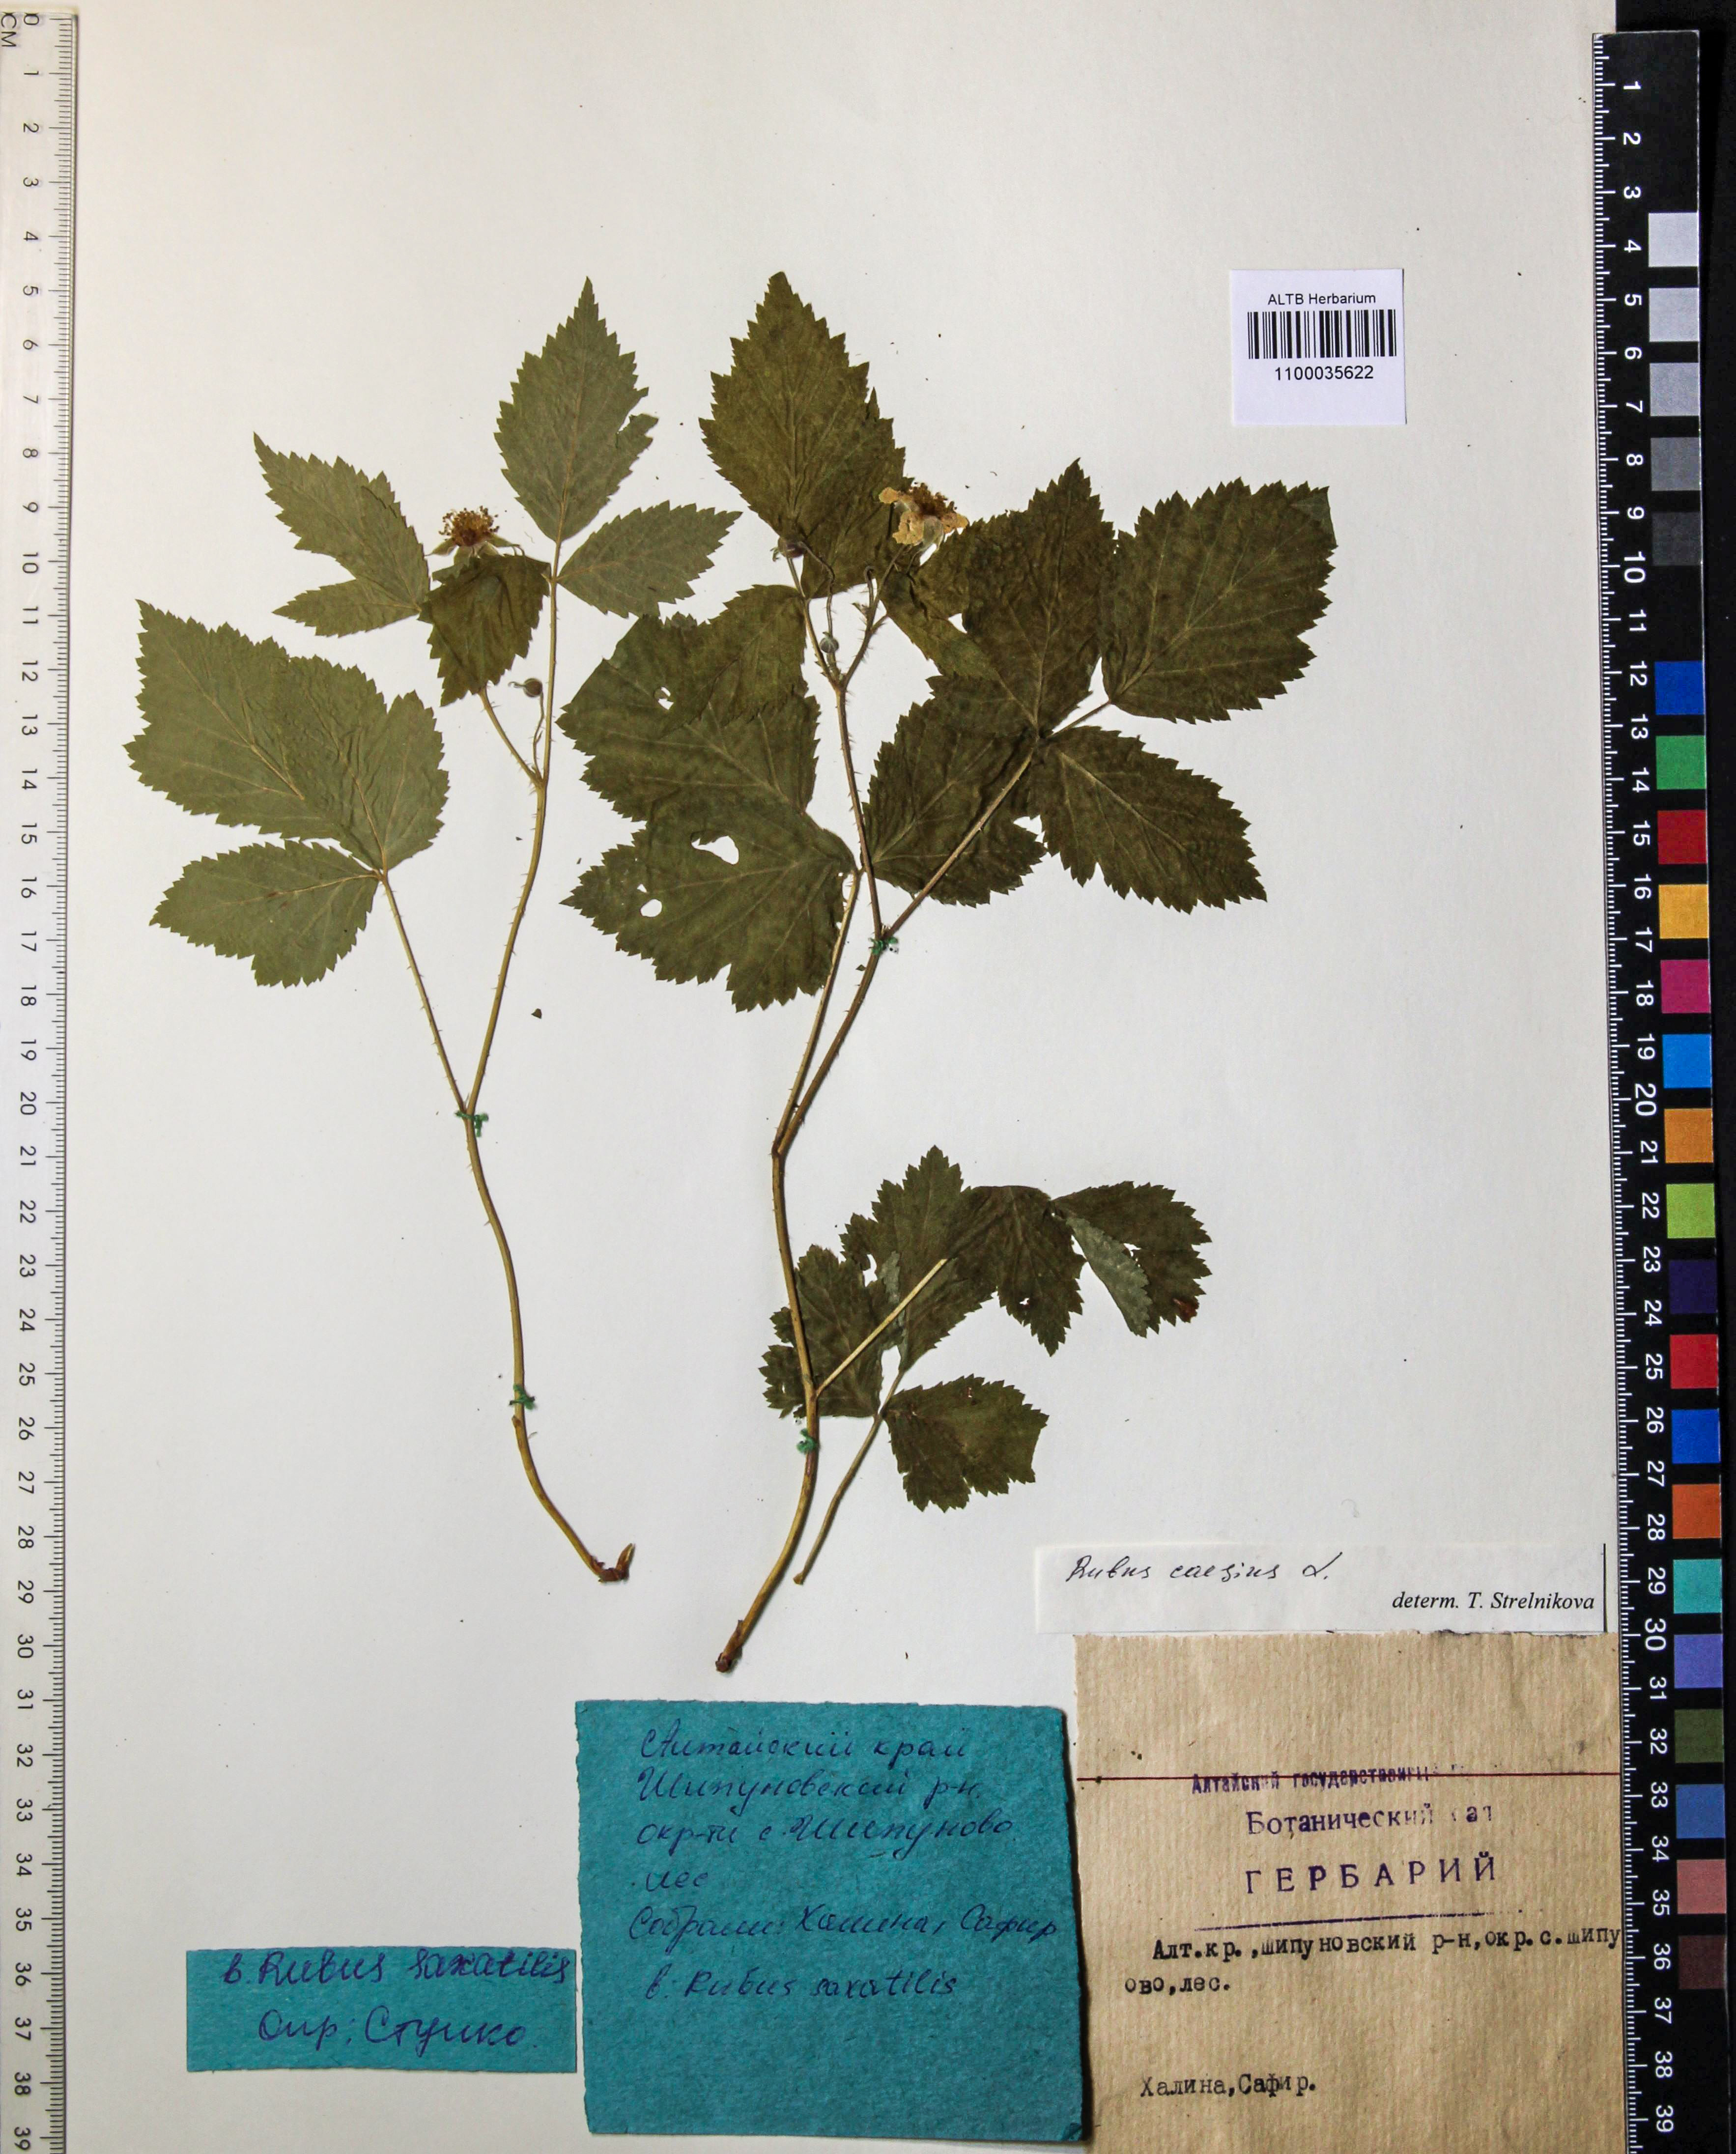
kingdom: Plantae
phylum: Tracheophyta
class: Magnoliopsida
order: Rosales
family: Rosaceae
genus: Rubus
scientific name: Rubus caesius
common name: Dewberry
